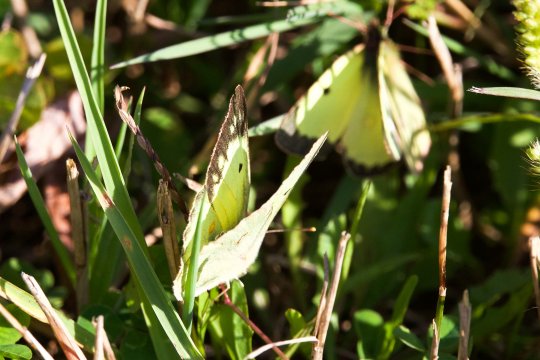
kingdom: Animalia
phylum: Arthropoda
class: Insecta
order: Lepidoptera
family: Pieridae
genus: Colias
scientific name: Colias philodice
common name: Clouded Sulphur
